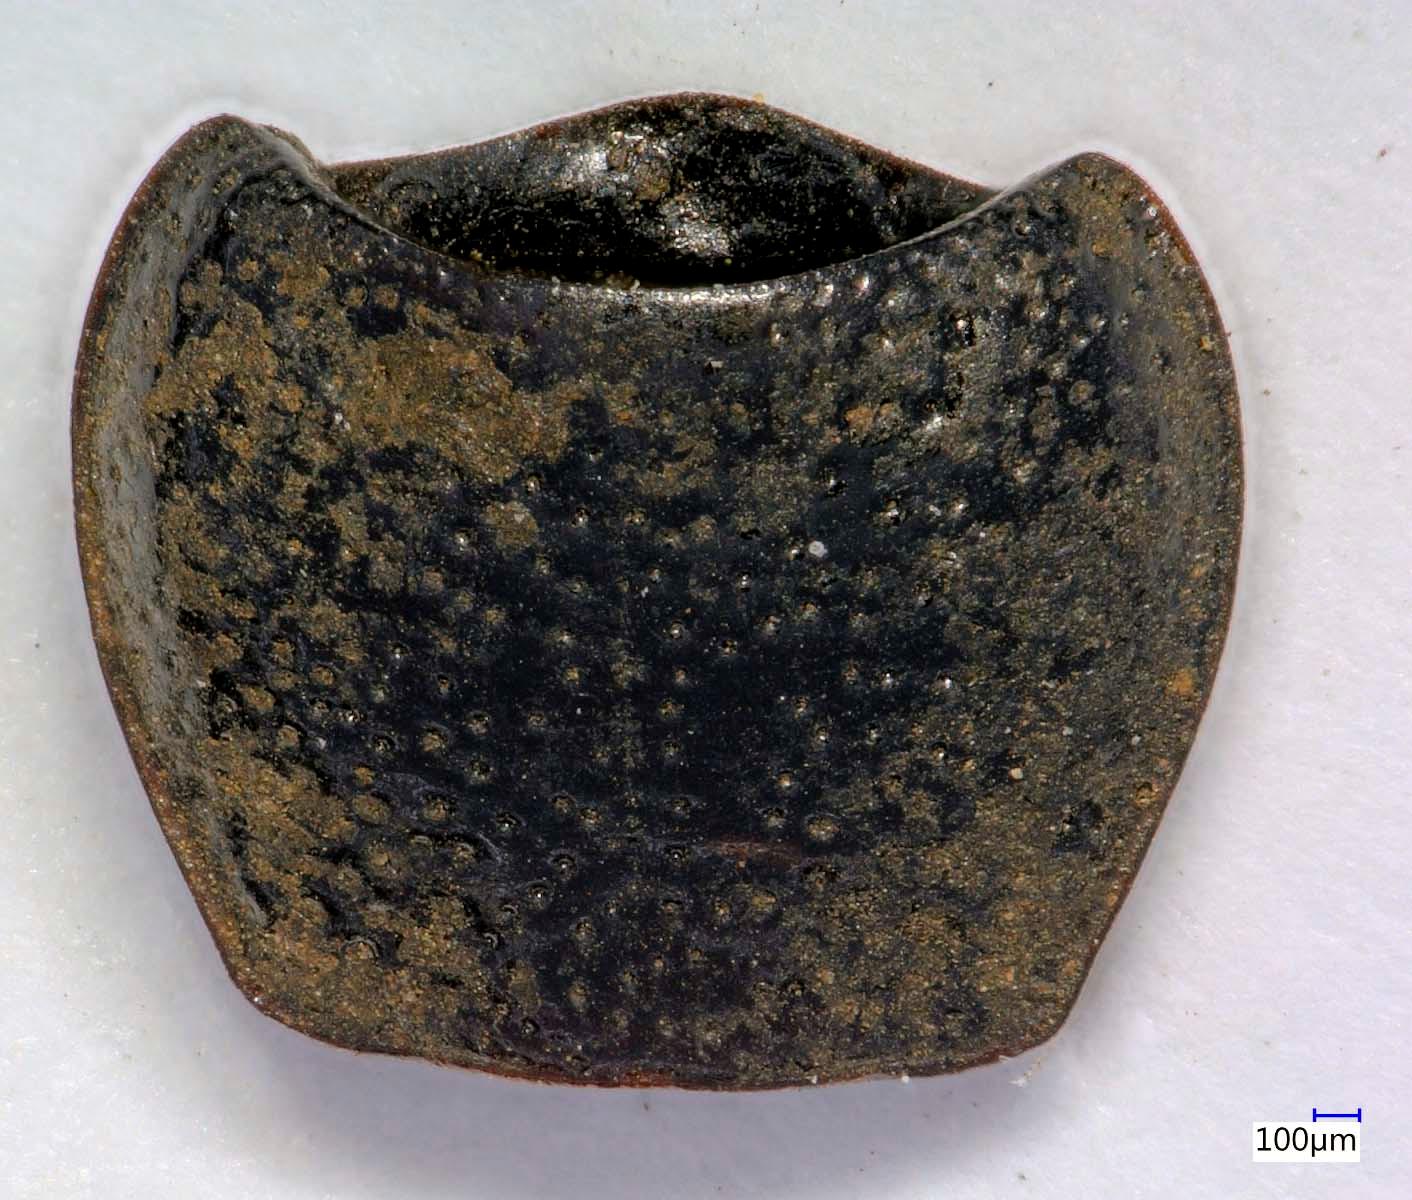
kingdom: Animalia
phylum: Arthropoda
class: Insecta
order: Coleoptera
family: Carabidae
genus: Dicheirus
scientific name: Dicheirus dilatatus
